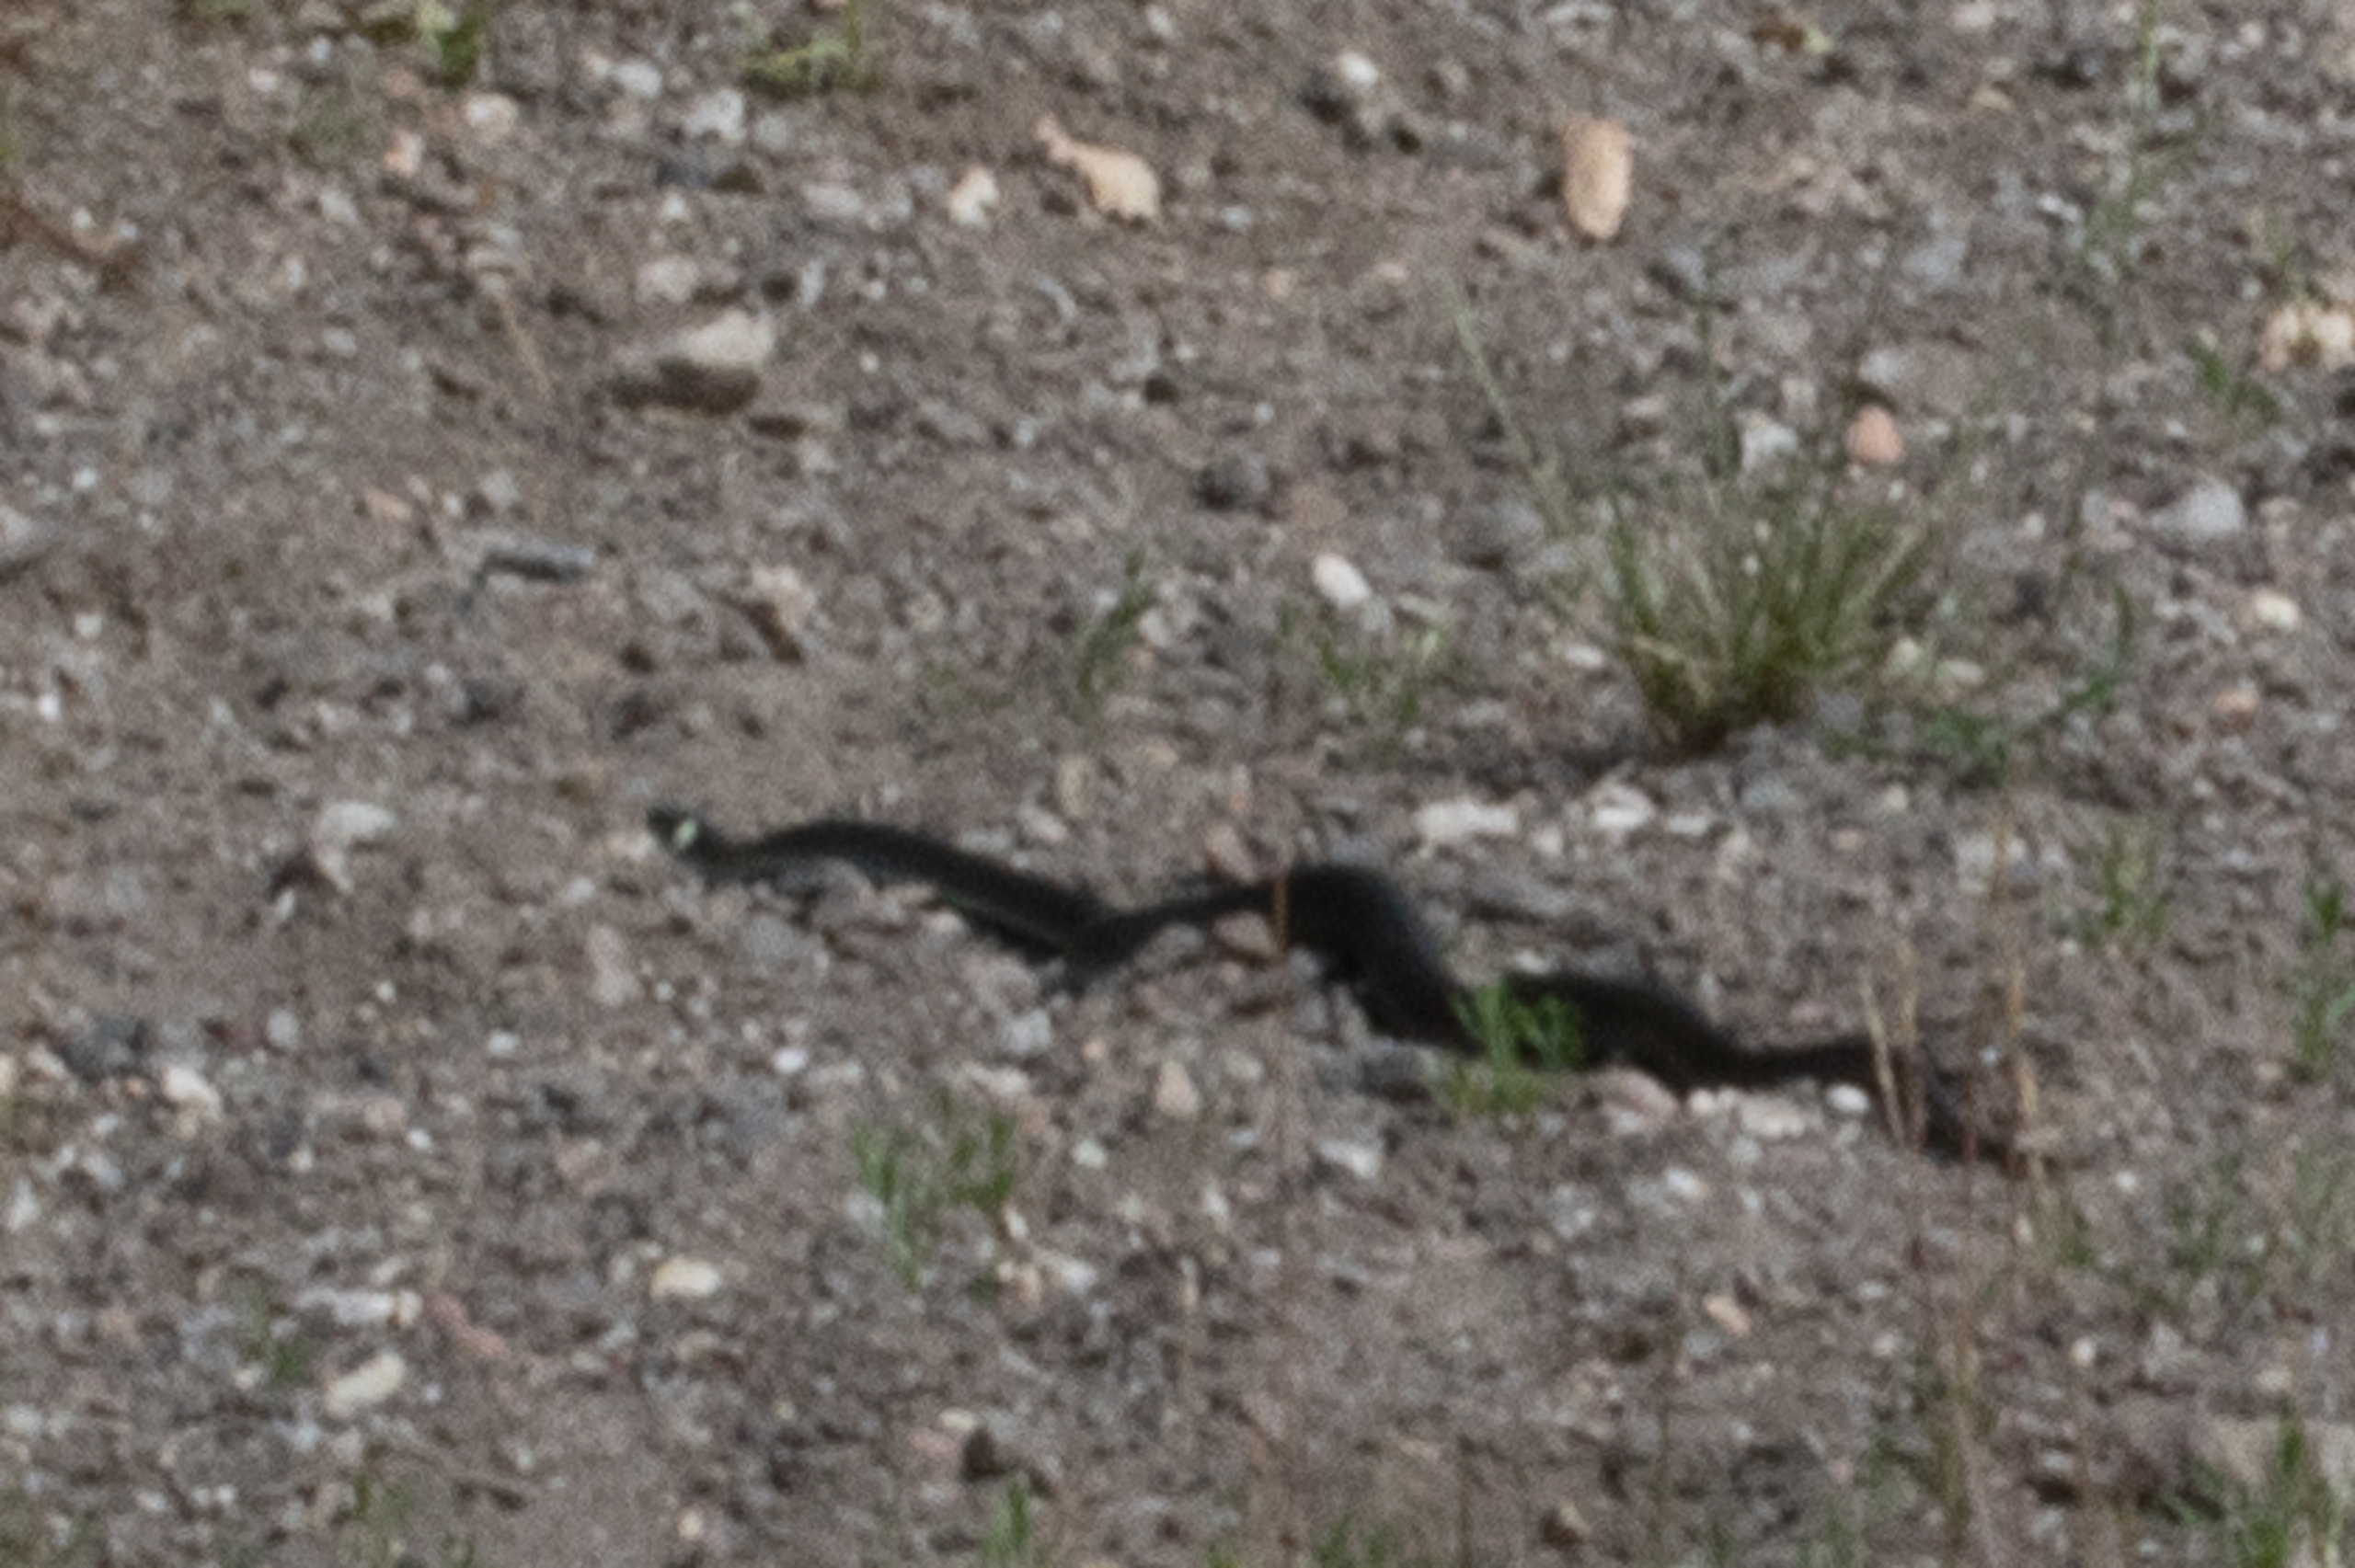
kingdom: Animalia
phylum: Chordata
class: Squamata
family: Colubridae
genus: Natrix
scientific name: Natrix natrix
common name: Snog
